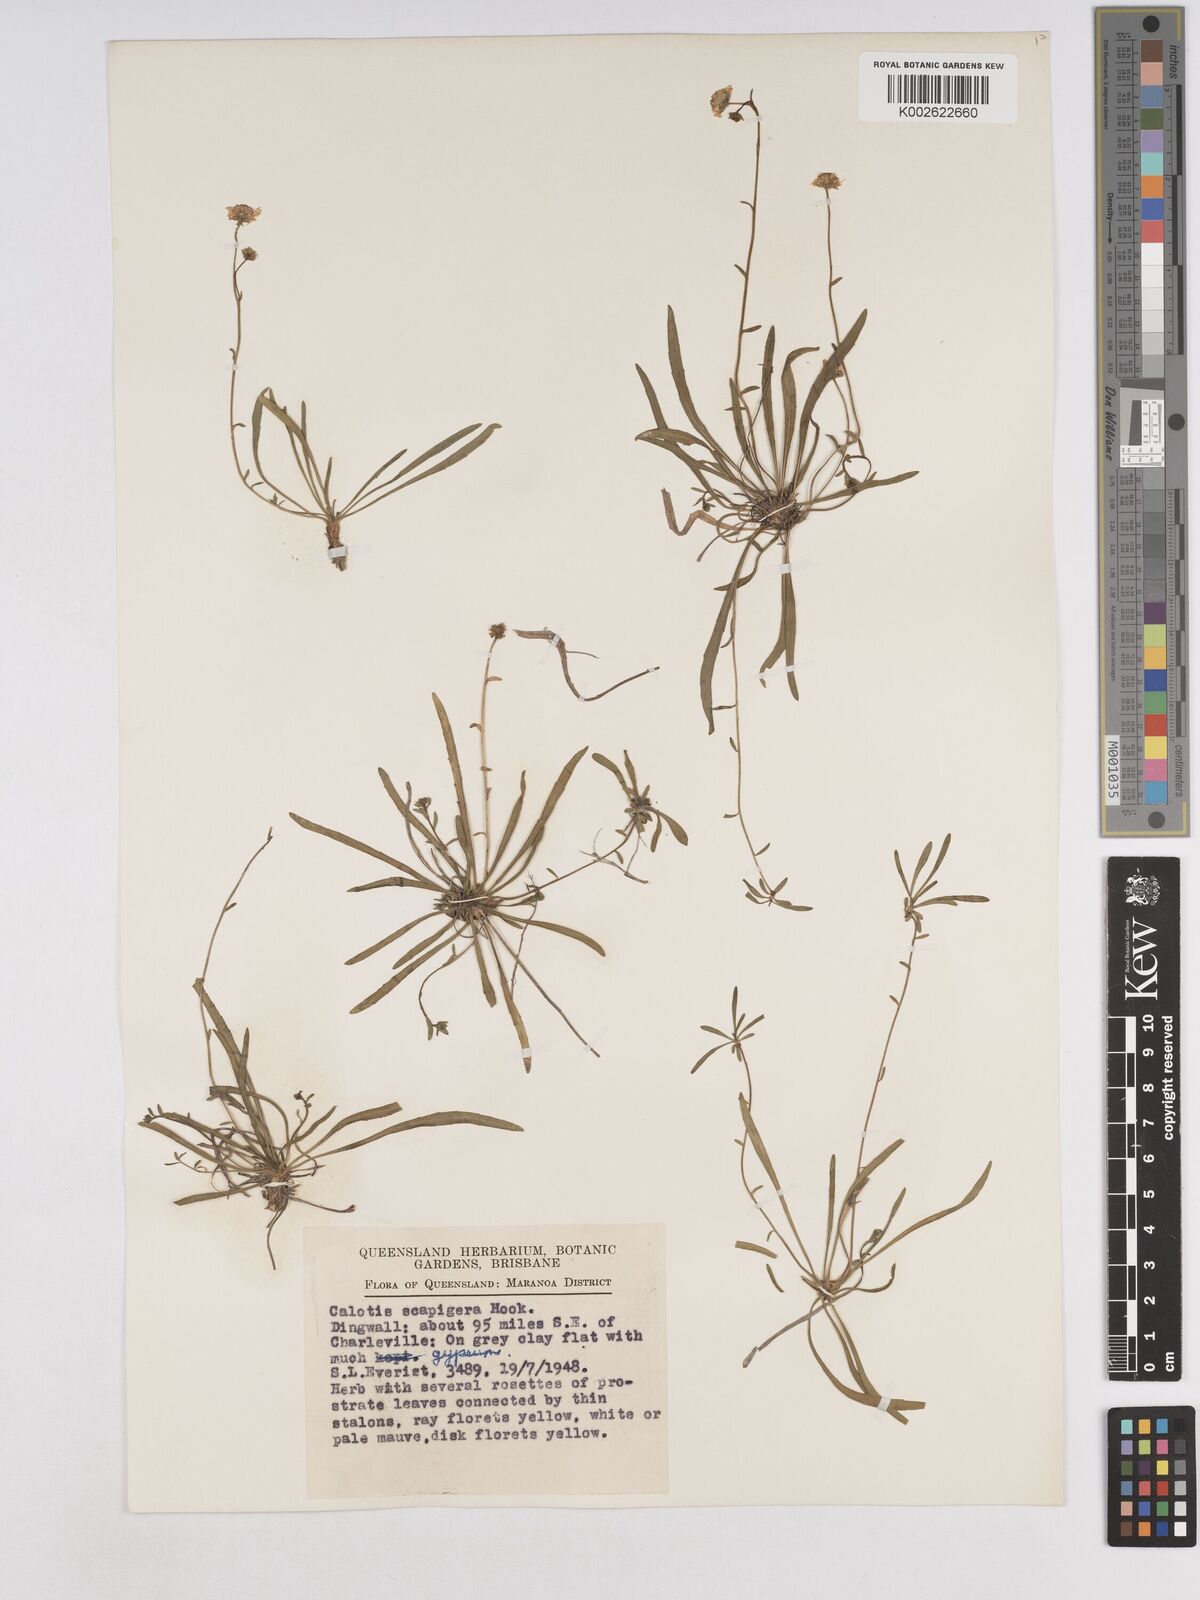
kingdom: Plantae
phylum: Tracheophyta
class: Magnoliopsida
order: Asterales
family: Asteraceae
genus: Calotis
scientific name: Calotis scapigera
